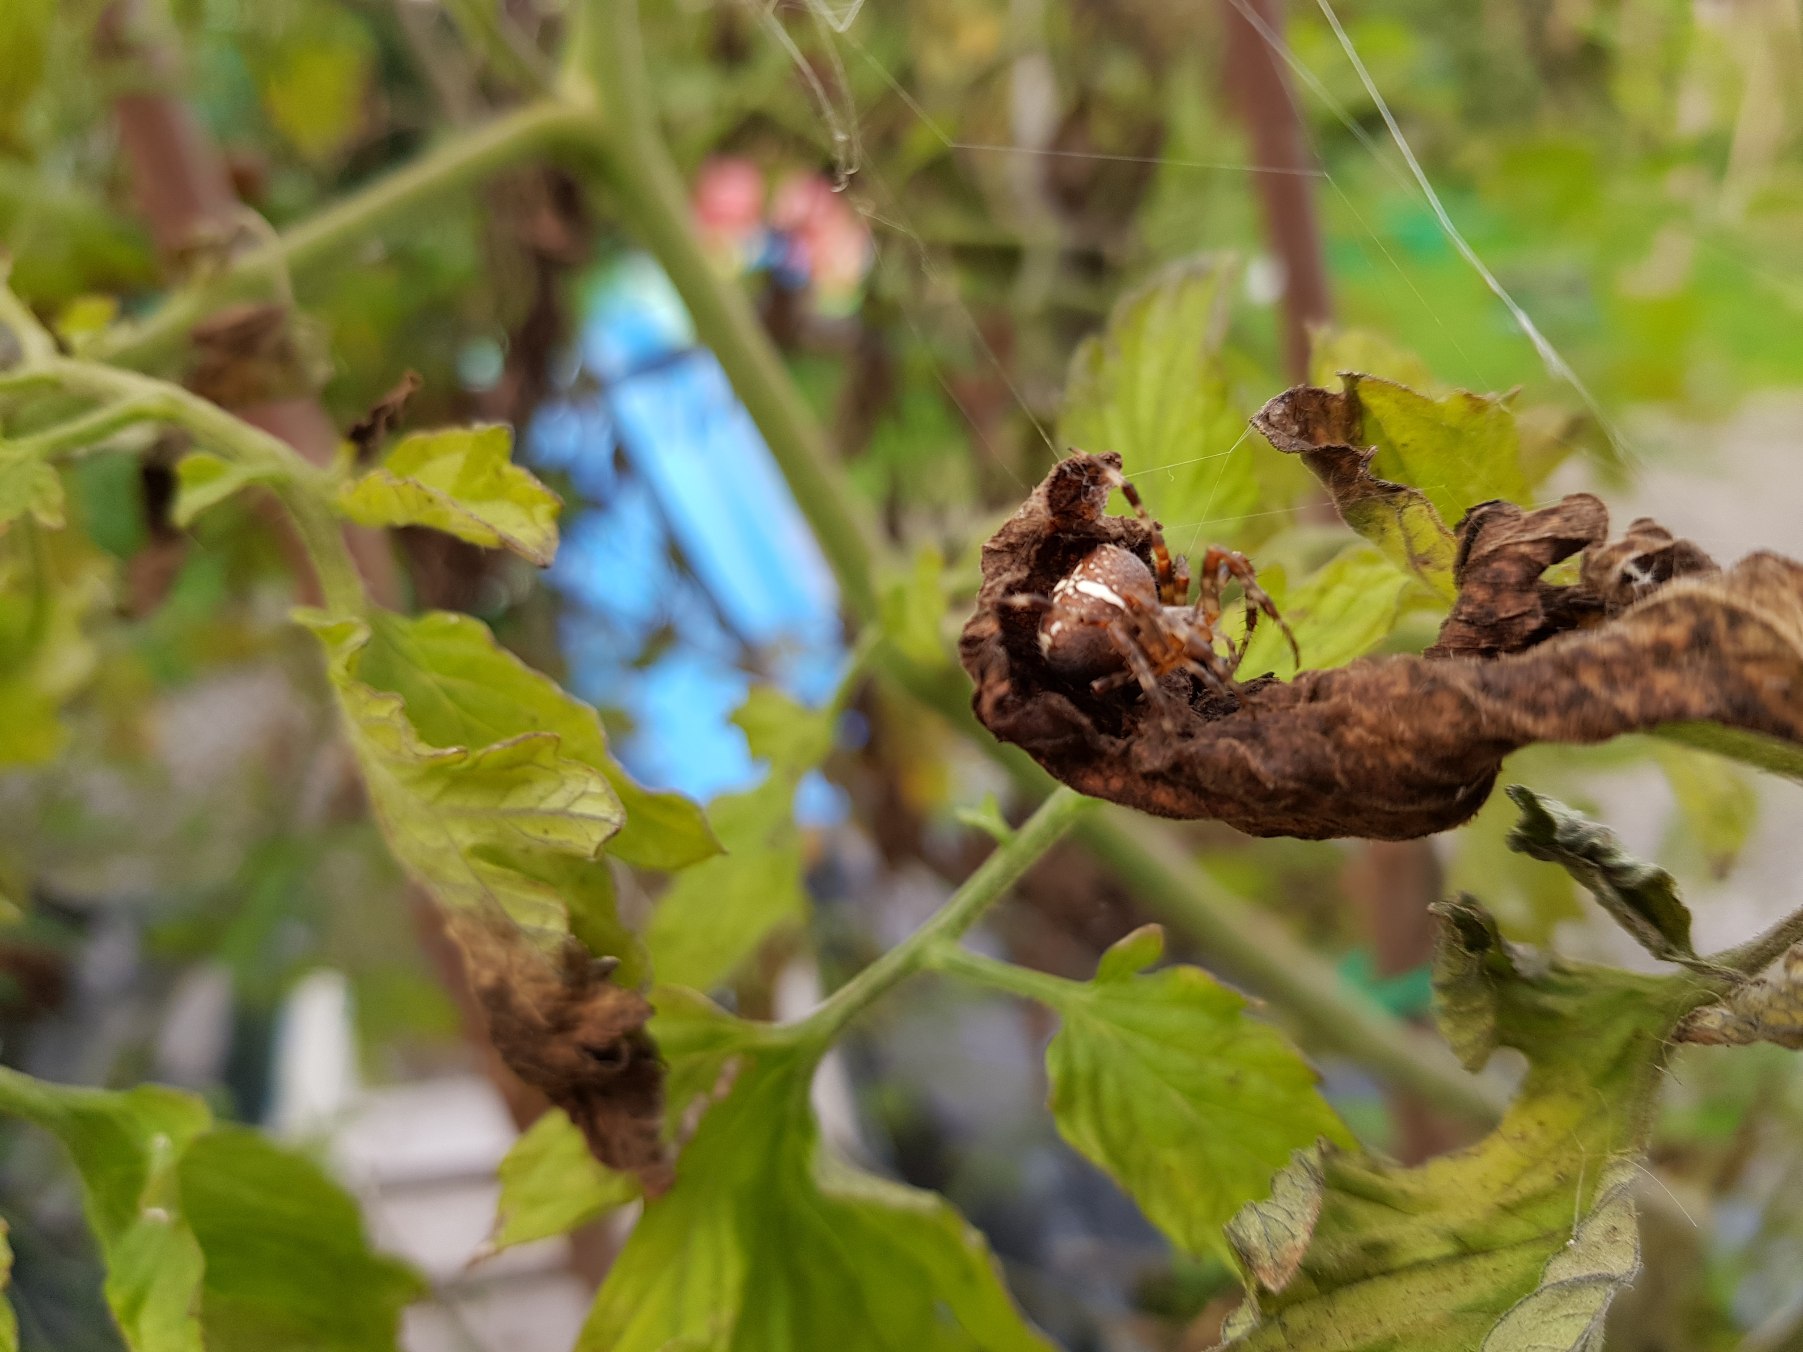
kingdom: Animalia
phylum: Arthropoda
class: Arachnida
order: Araneae
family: Araneidae
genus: Araneus
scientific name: Araneus diadematus
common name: Korsedderkop
